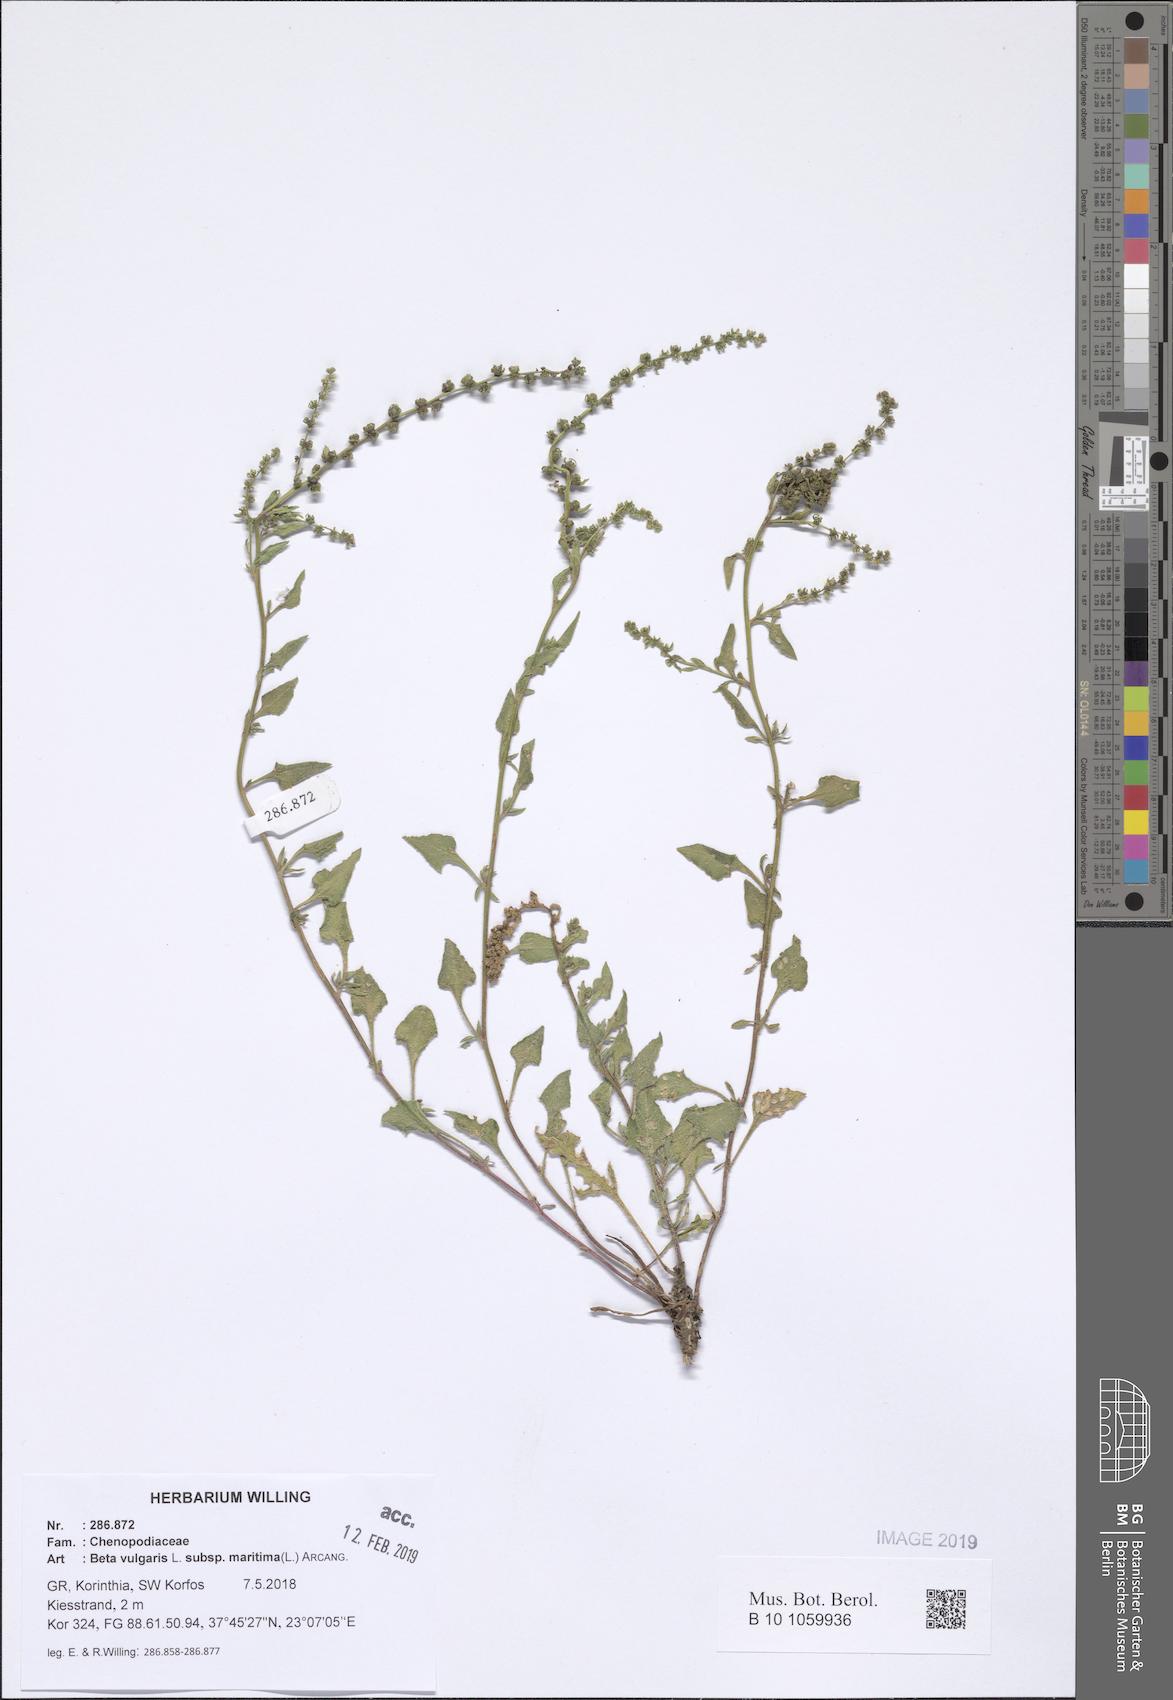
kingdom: Plantae
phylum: Tracheophyta
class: Magnoliopsida
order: Caryophyllales
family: Amaranthaceae
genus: Beta
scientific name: Beta maritima
